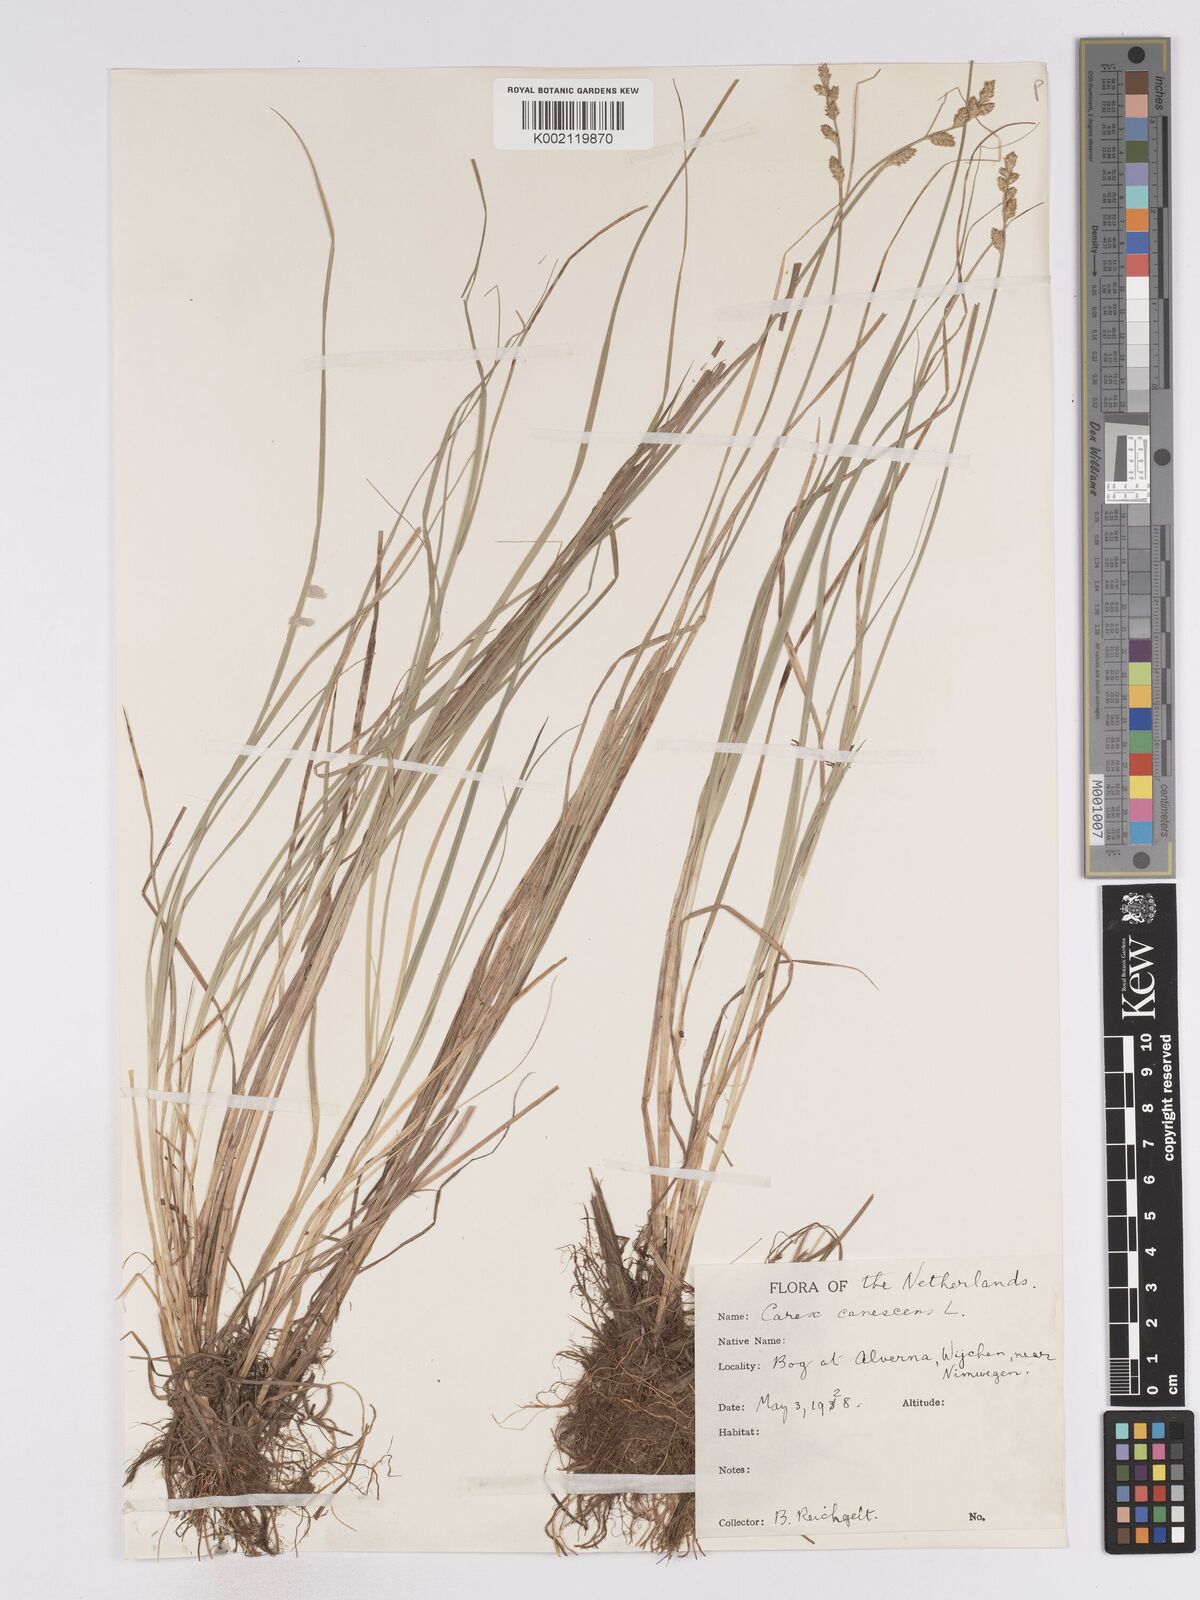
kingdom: Plantae
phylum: Tracheophyta
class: Liliopsida
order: Poales
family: Cyperaceae
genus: Carex
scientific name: Carex curta
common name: White sedge
